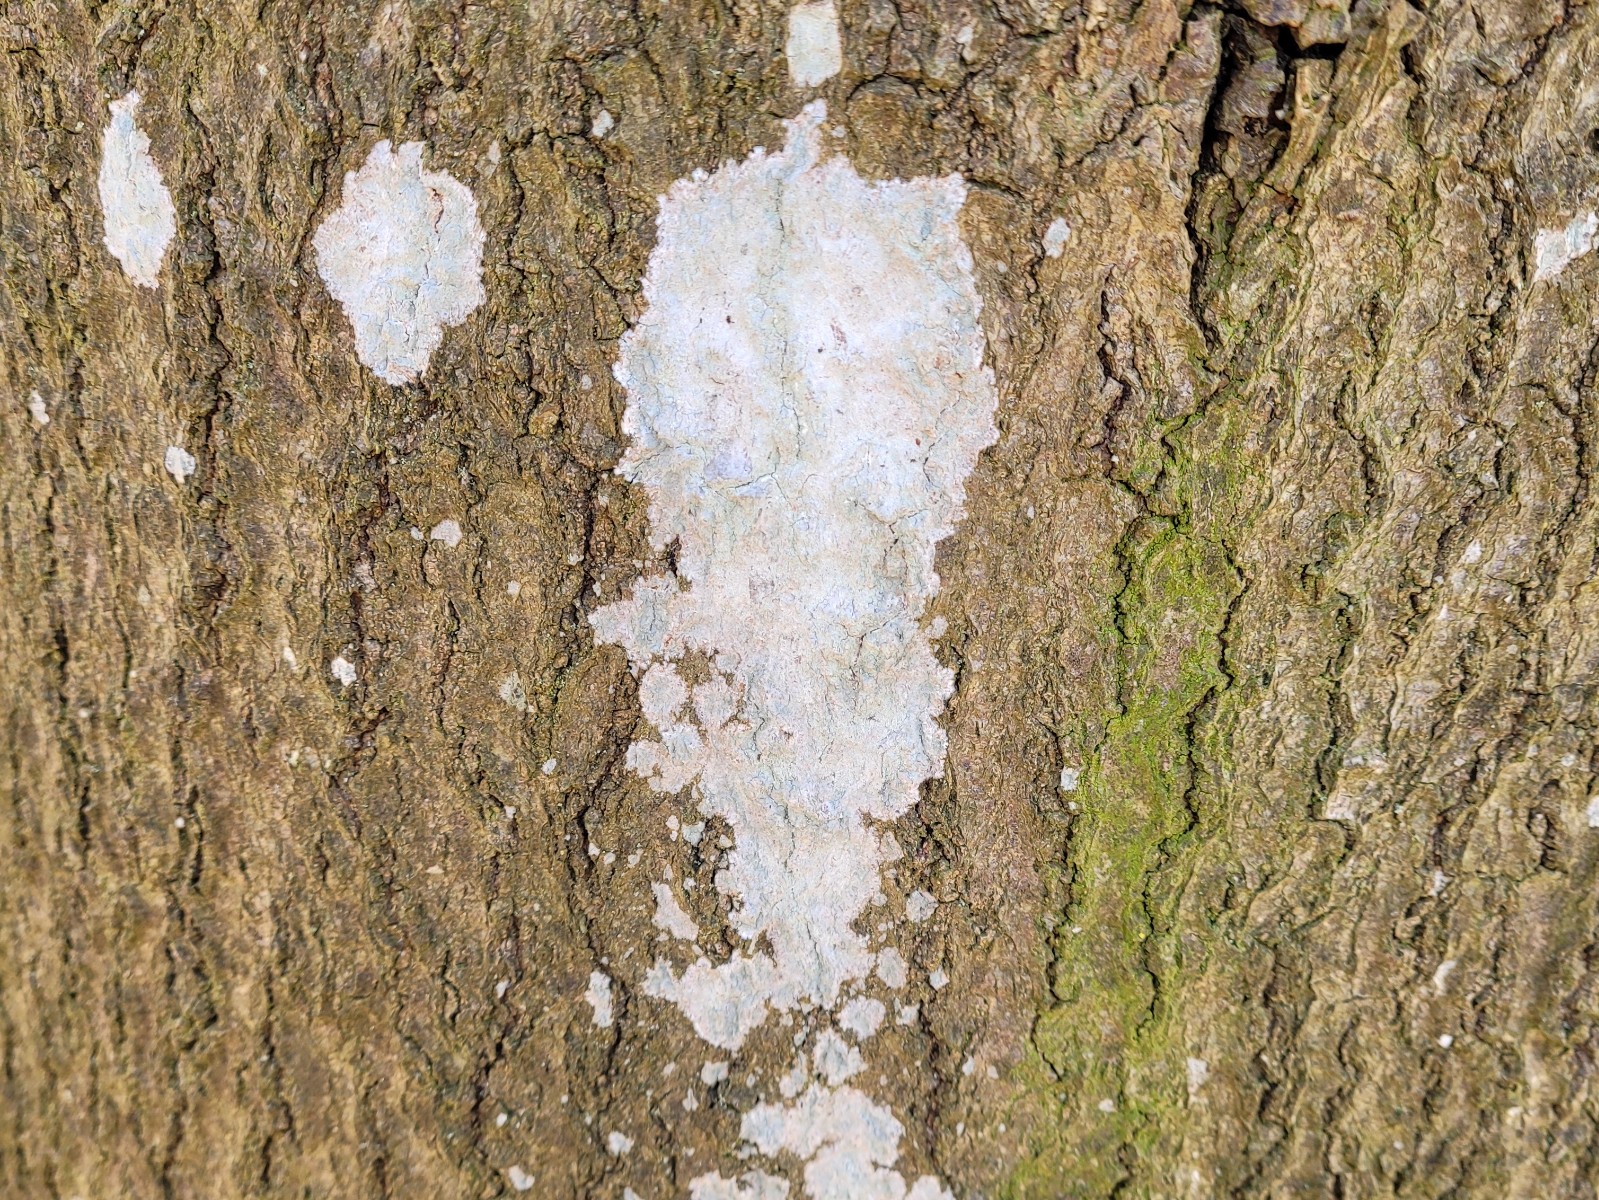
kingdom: Fungi
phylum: Ascomycota
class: Lecanoromycetes
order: Ostropales
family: Phlyctidaceae
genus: Phlyctis
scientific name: Phlyctis argena
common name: almindelig sølvlav
